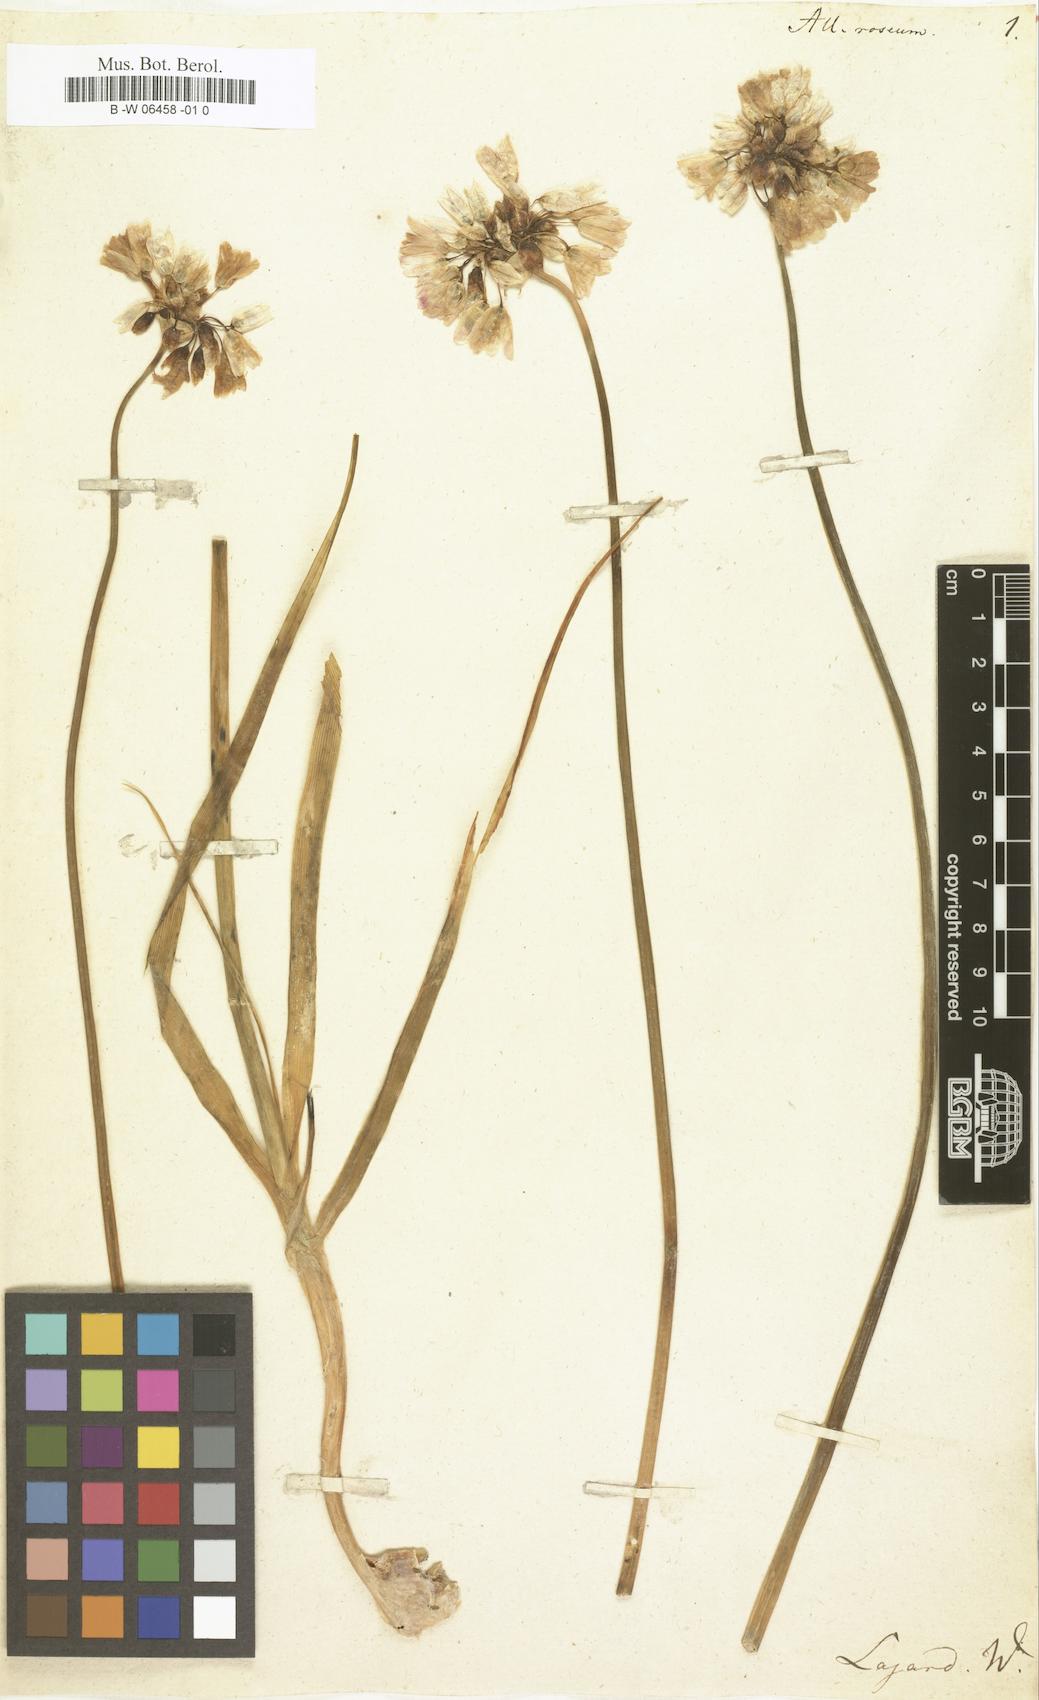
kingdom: Plantae
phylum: Tracheophyta
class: Liliopsida
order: Asparagales
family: Amaryllidaceae
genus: Allium
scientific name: Allium roseum
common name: Rosy garlic
